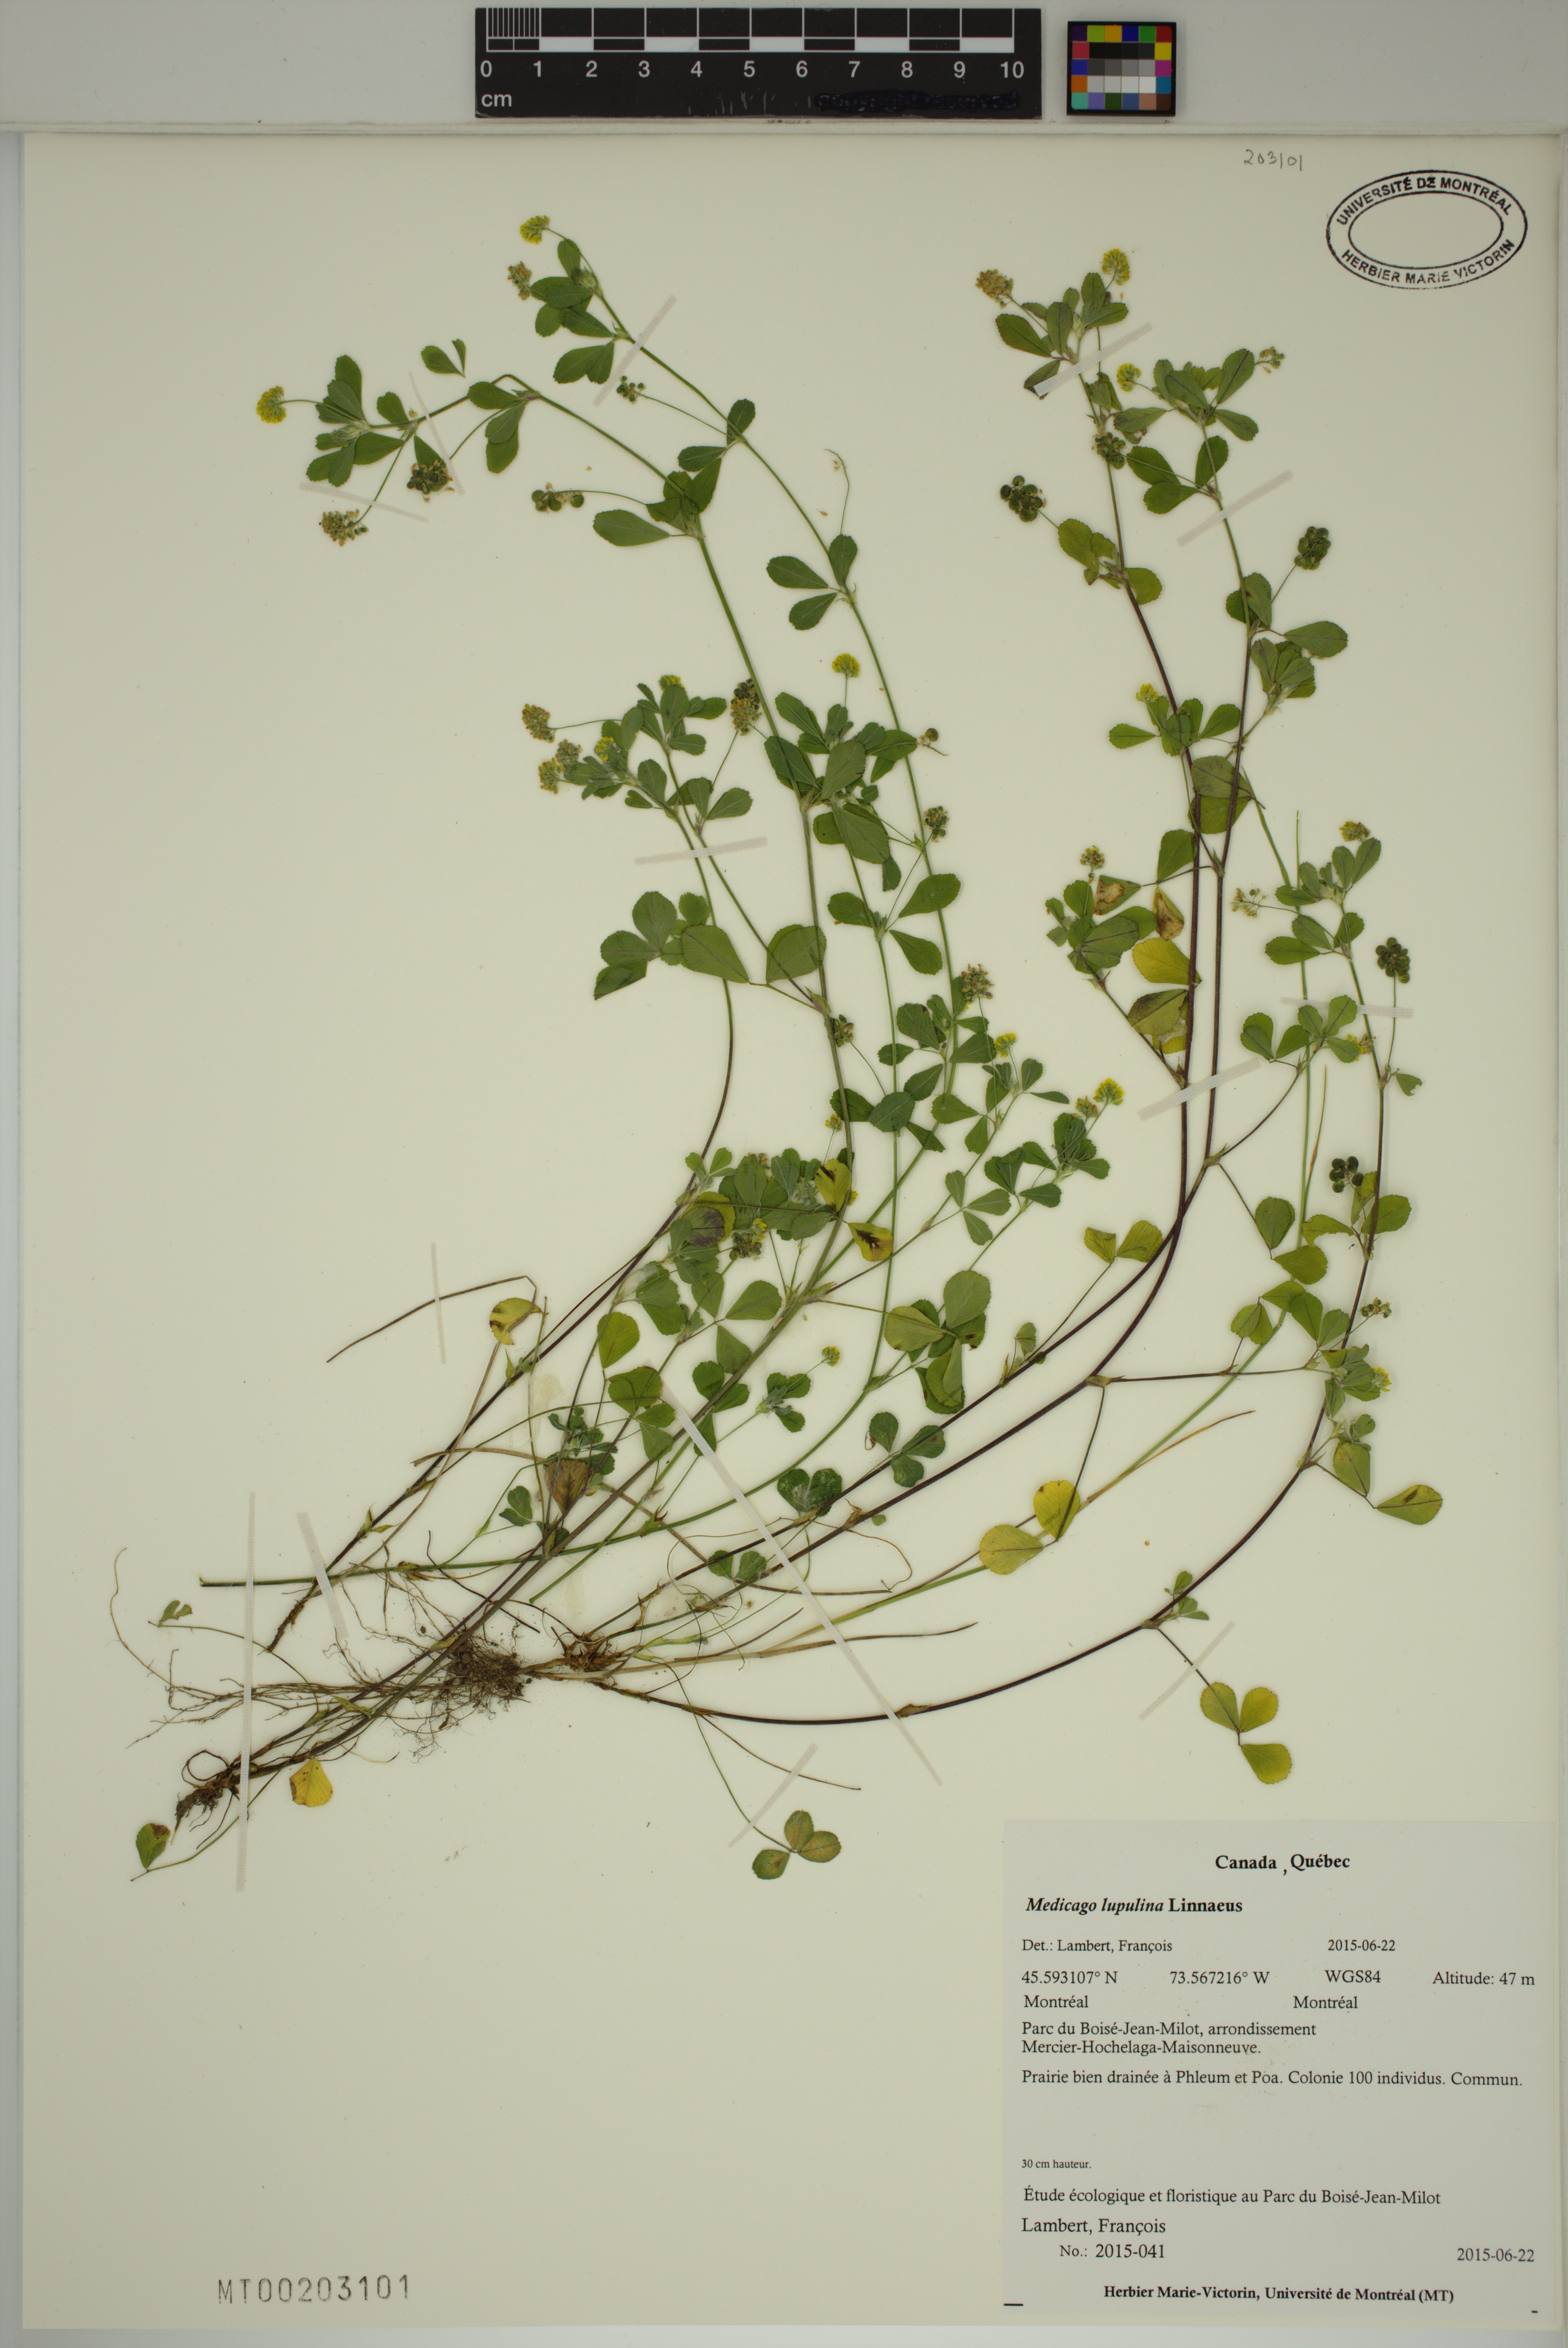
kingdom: Plantae
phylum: Tracheophyta
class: Magnoliopsida
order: Fabales
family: Fabaceae
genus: Medicago
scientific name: Medicago lupulina
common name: Black medick
